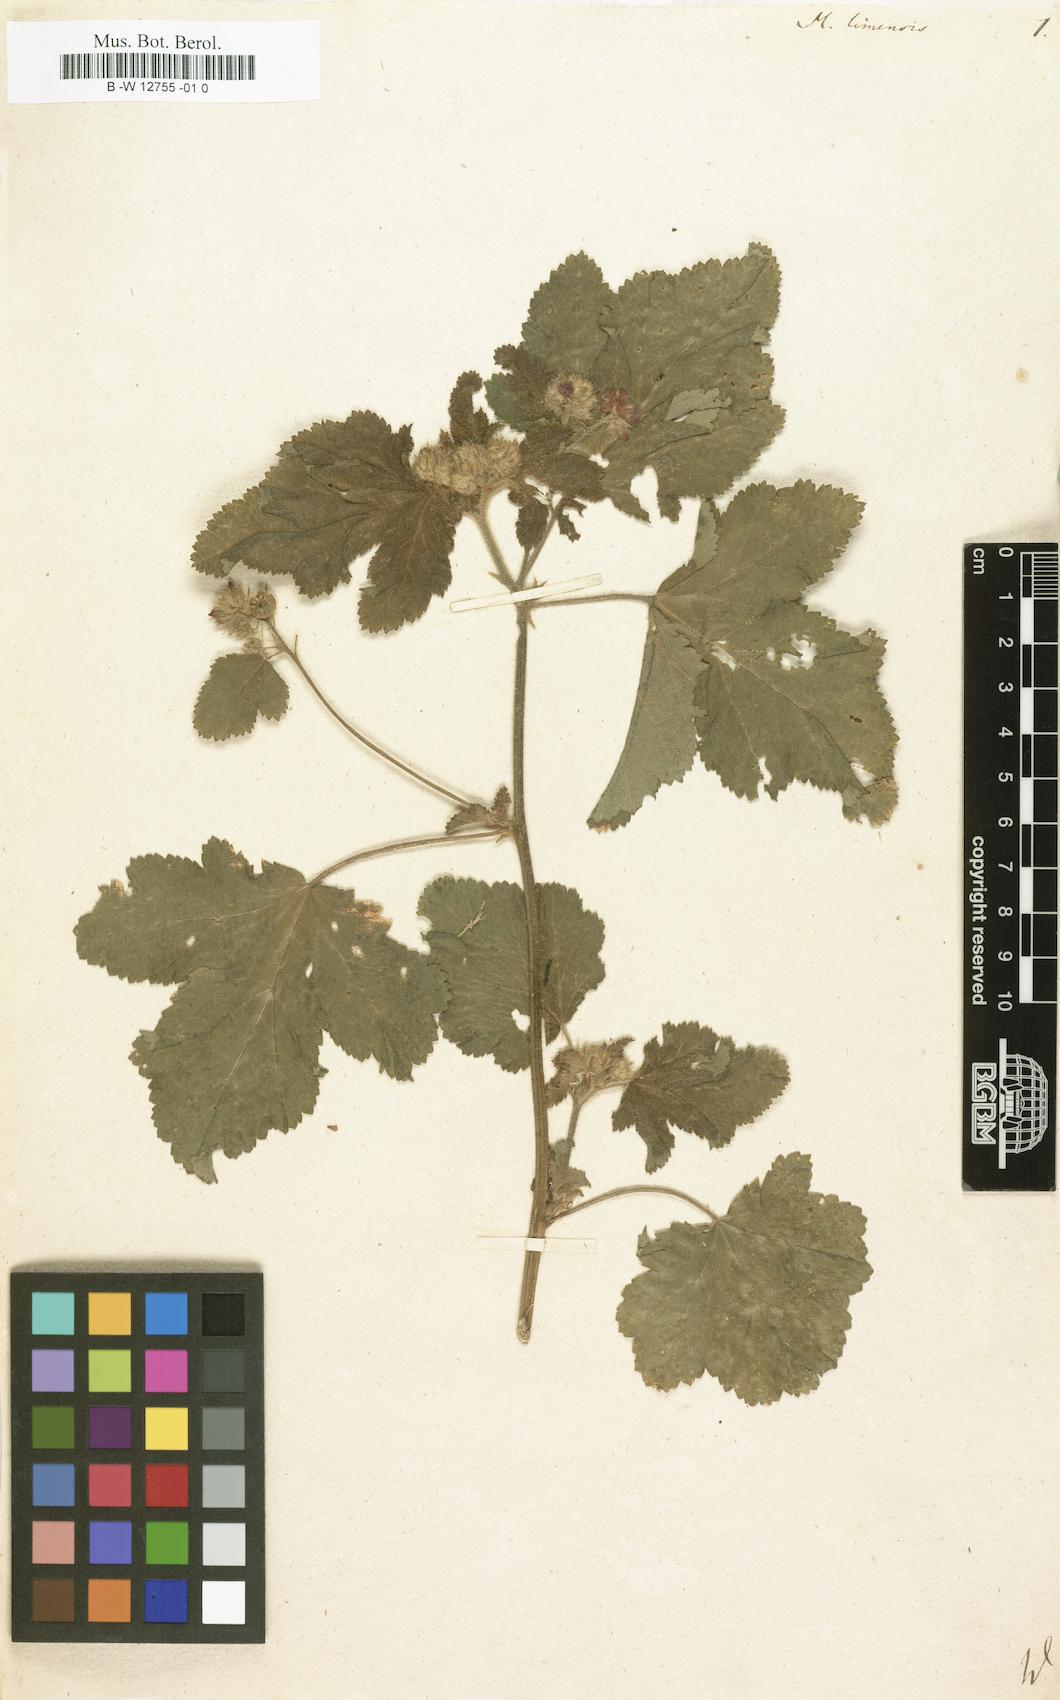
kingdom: Plantae
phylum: Tracheophyta
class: Magnoliopsida
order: Malvales
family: Malvaceae
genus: Fuertesimalva
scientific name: Fuertesimalva limensis
